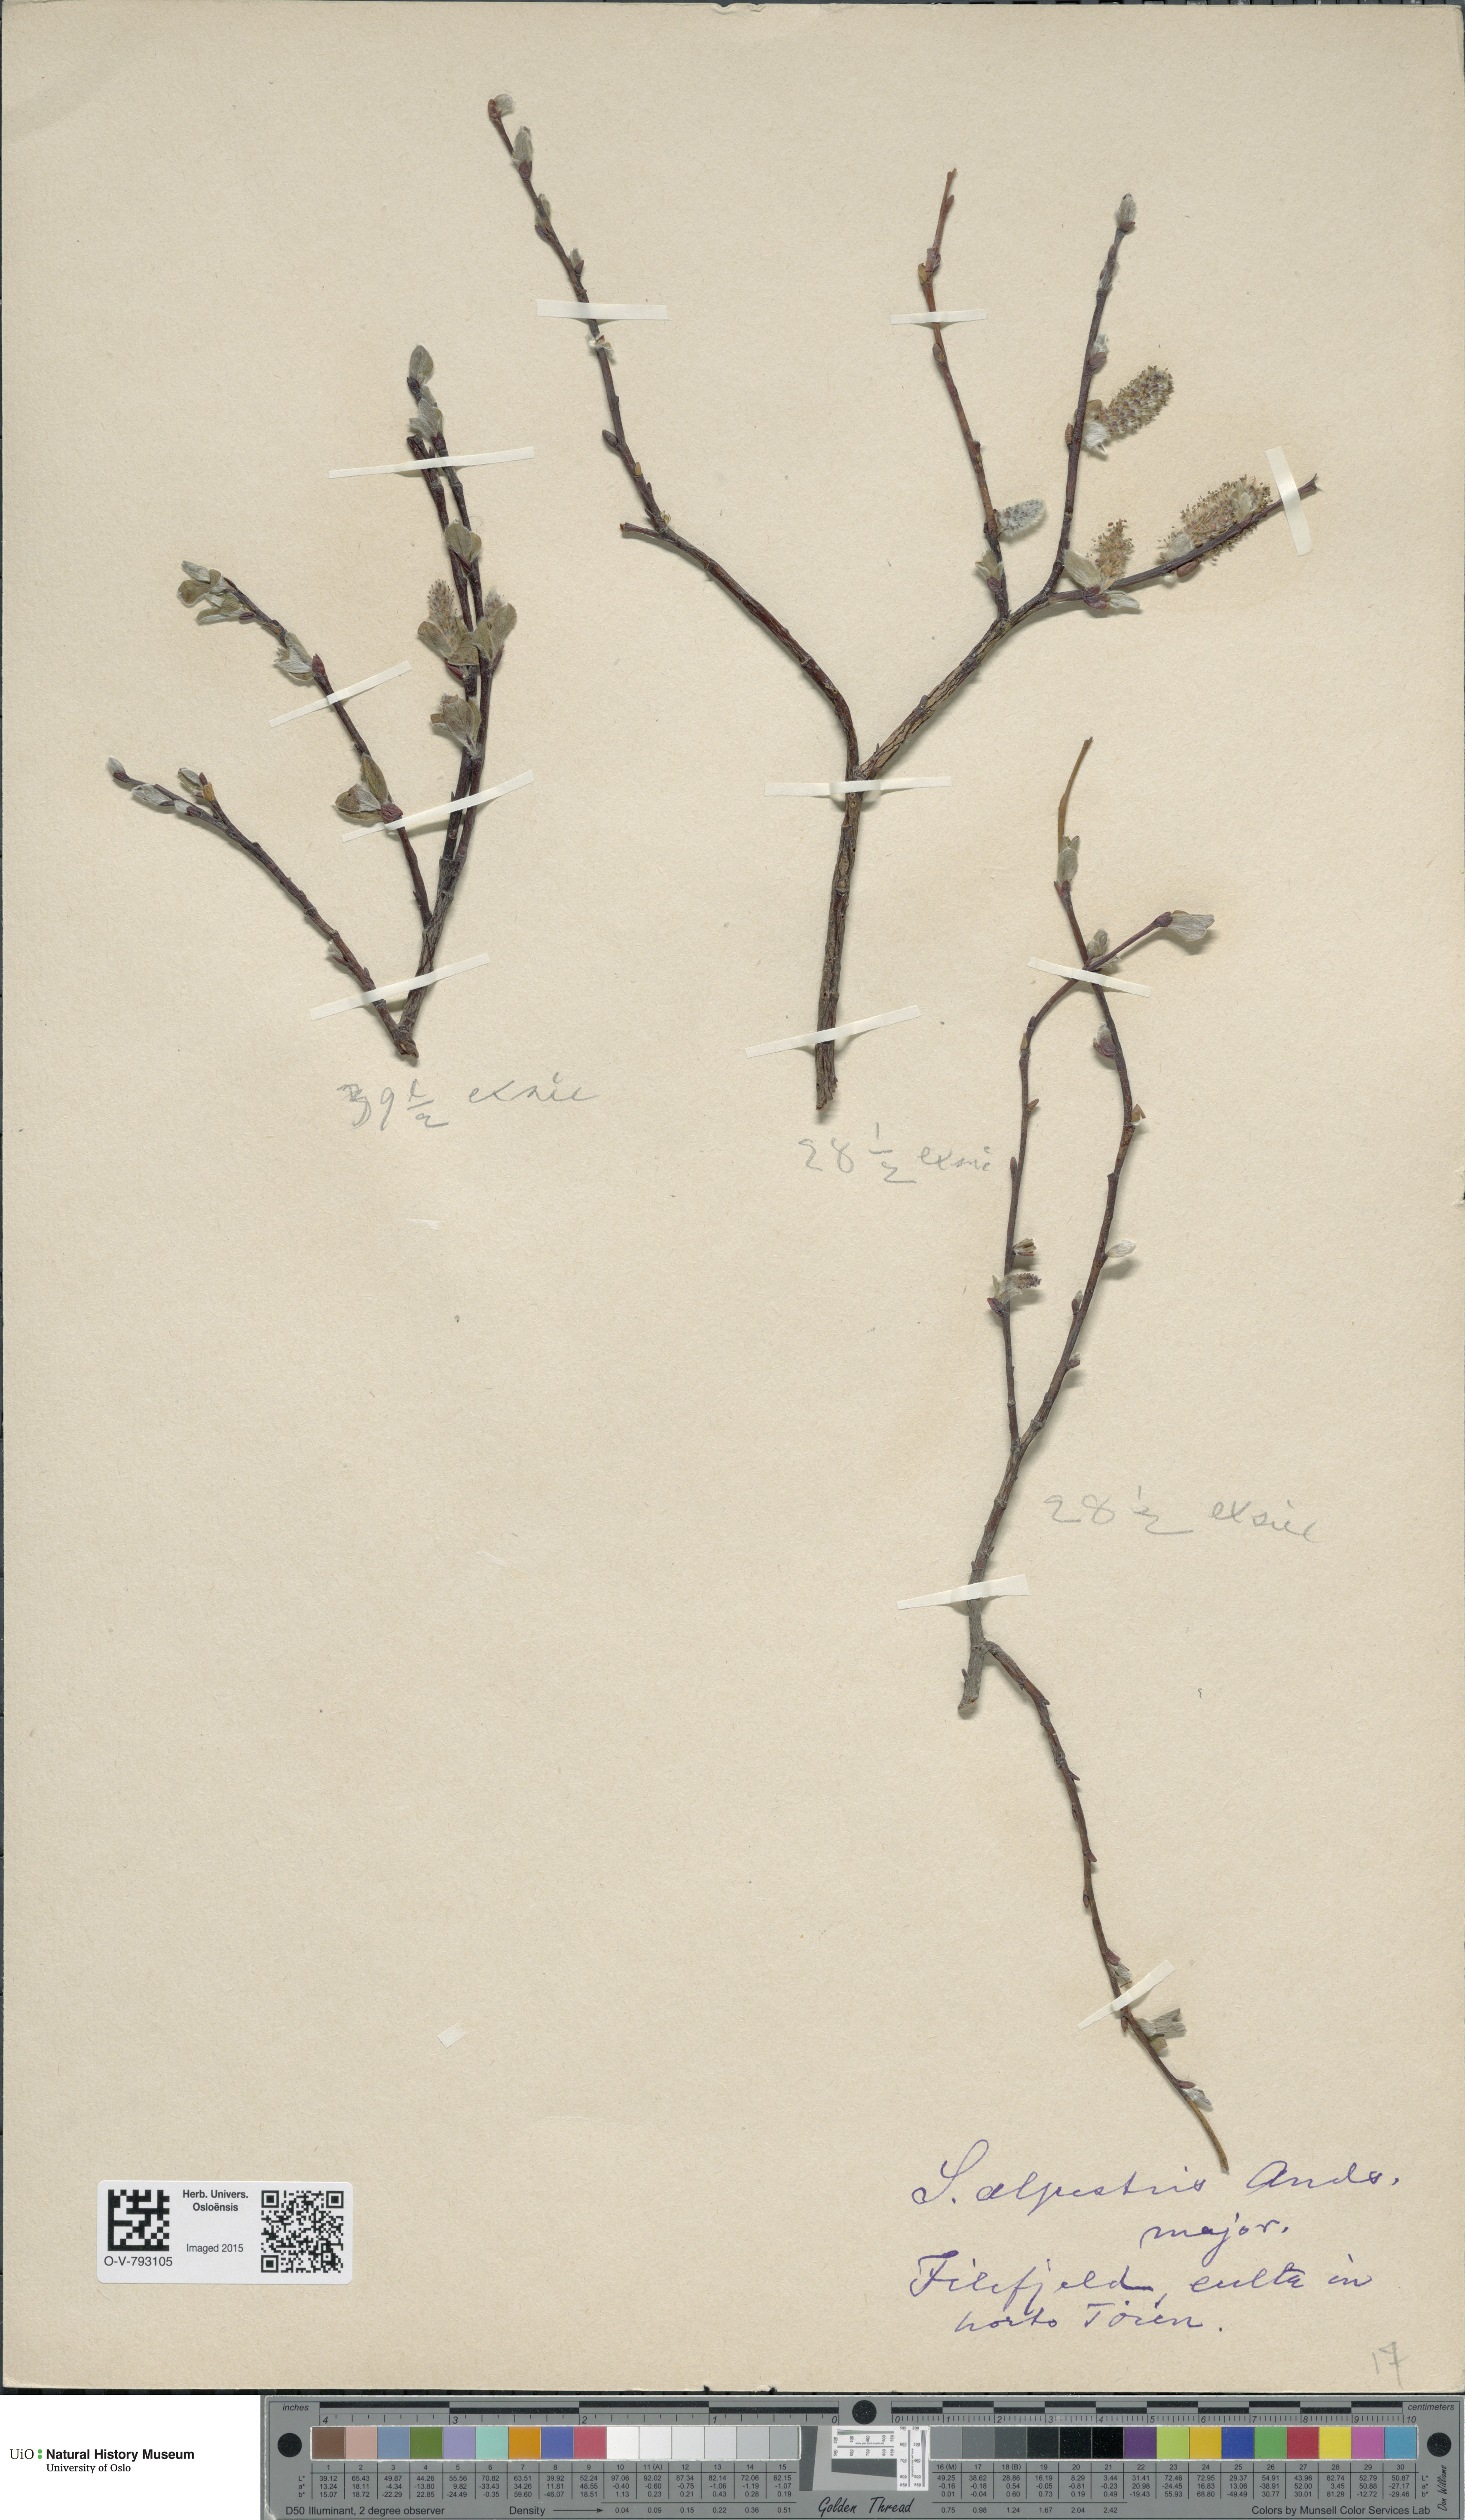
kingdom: Plantae
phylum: Tracheophyta
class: Magnoliopsida
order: Malpighiales
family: Salicaceae
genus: Salix
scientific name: Salix
